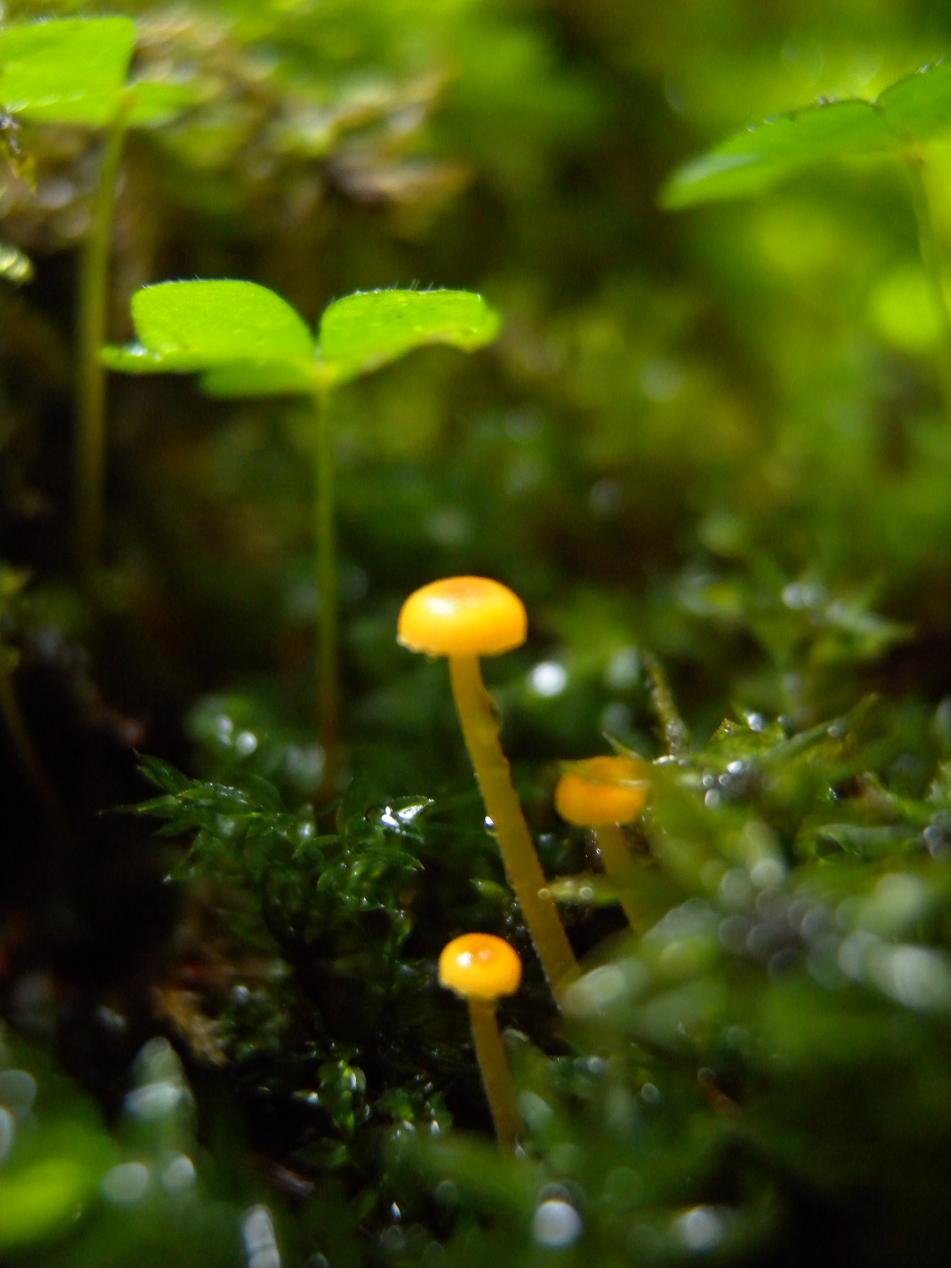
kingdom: Fungi
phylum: Basidiomycota
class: Agaricomycetes
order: Hymenochaetales
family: Rickenellaceae
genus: Rickenella
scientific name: Rickenella fibula
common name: orange mosnavlehat
